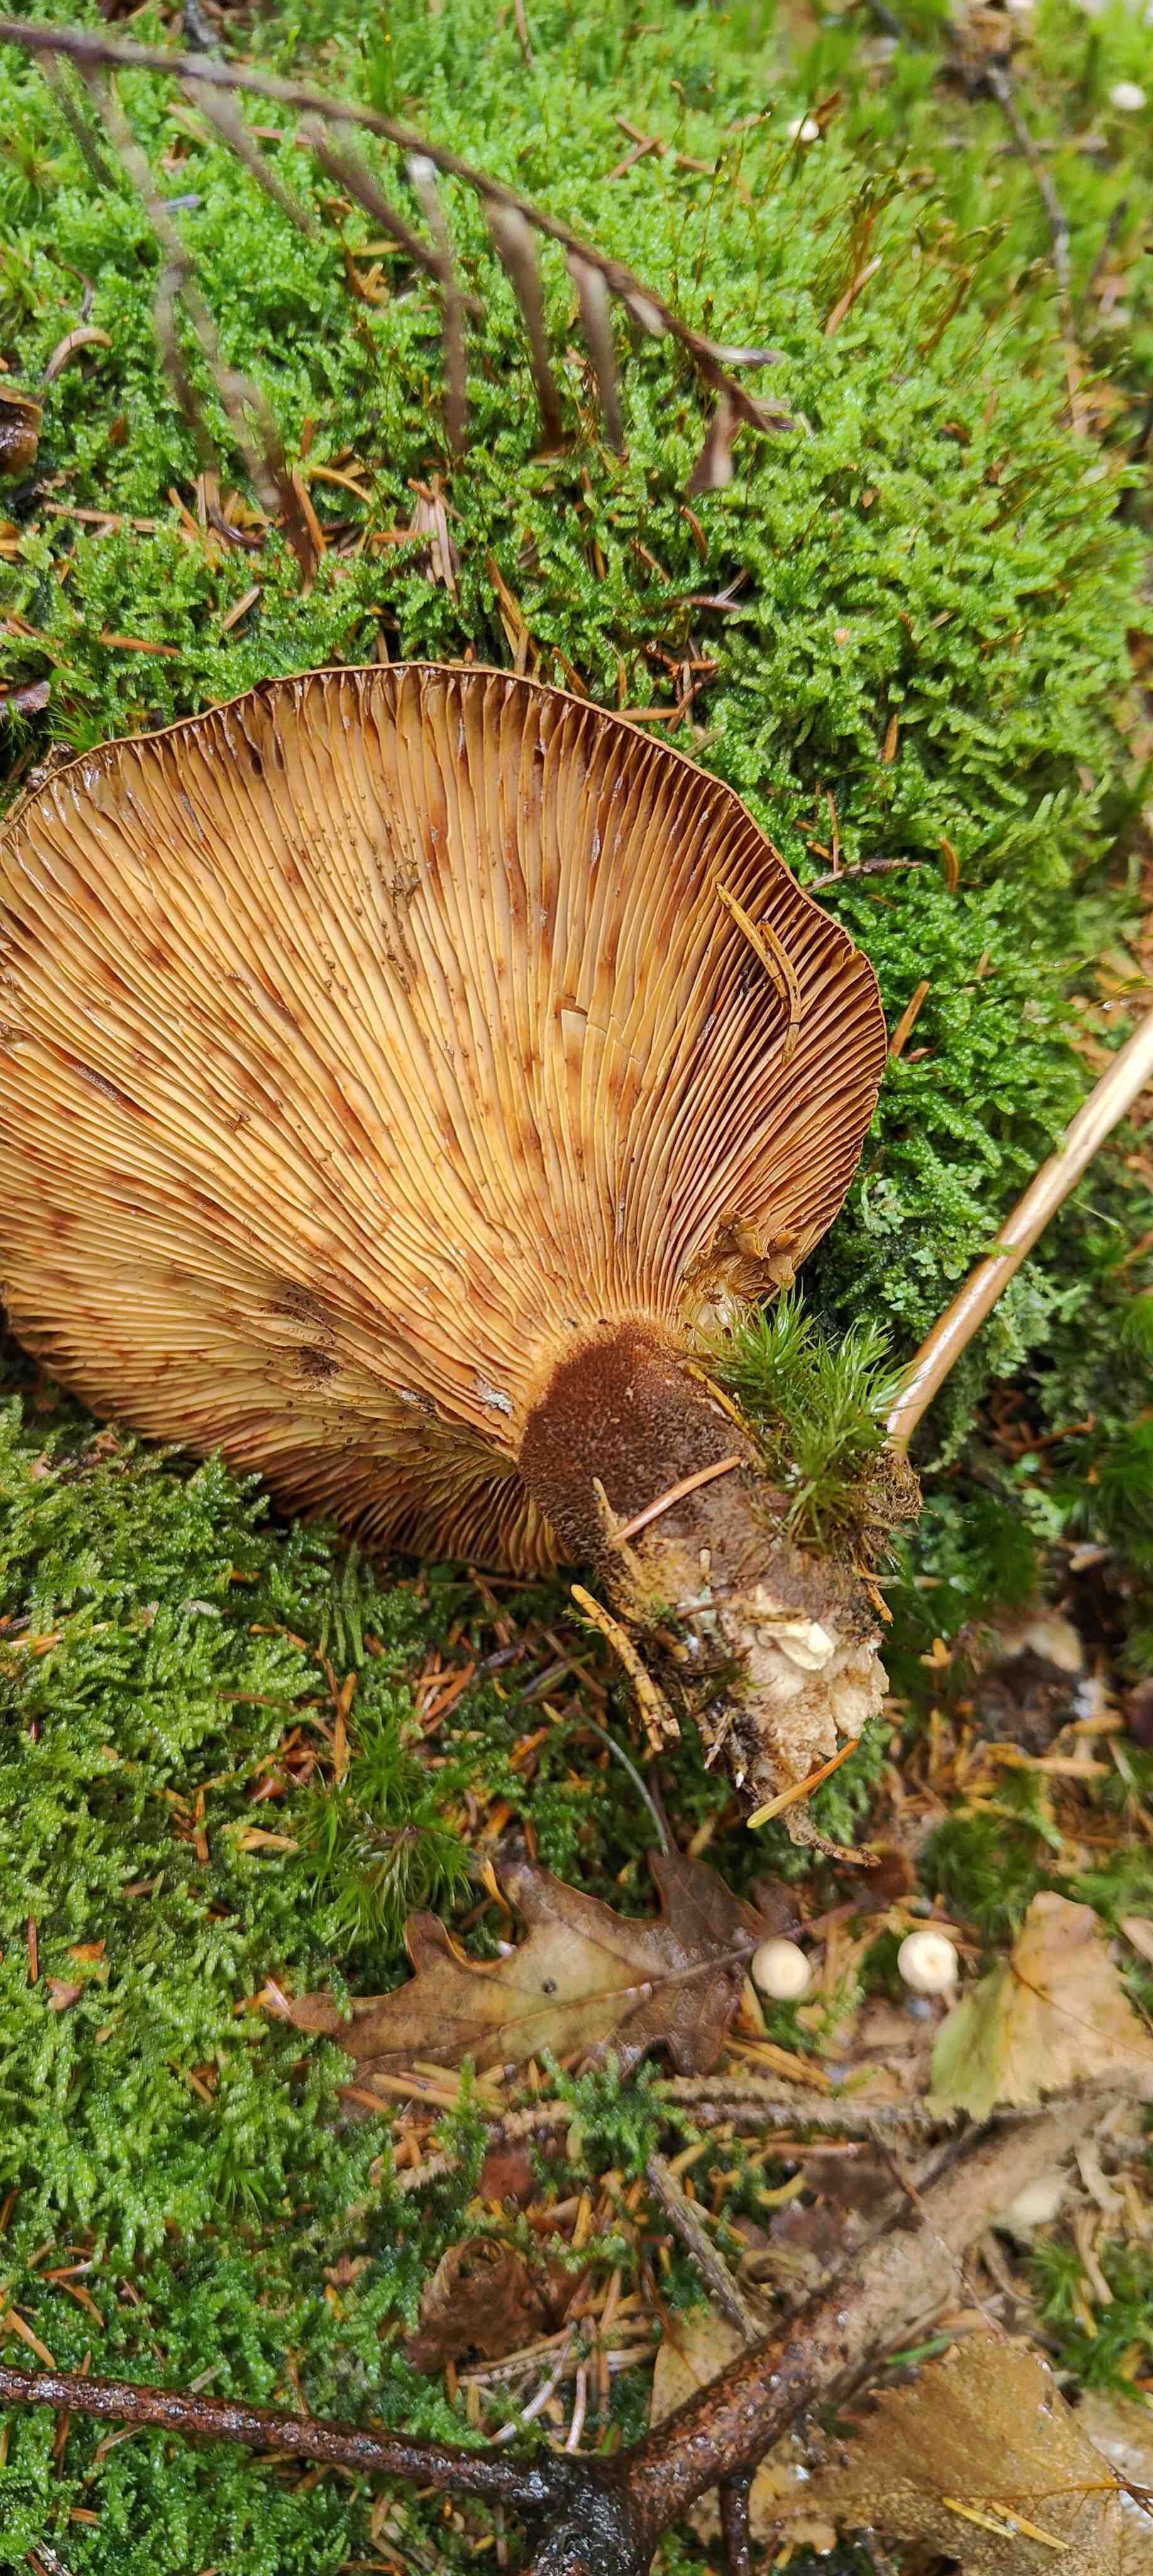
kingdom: Fungi
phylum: Basidiomycota
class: Agaricomycetes
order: Boletales
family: Tapinellaceae
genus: Tapinella
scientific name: Tapinella atrotomentosa
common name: sortfiltet viftesvamp
